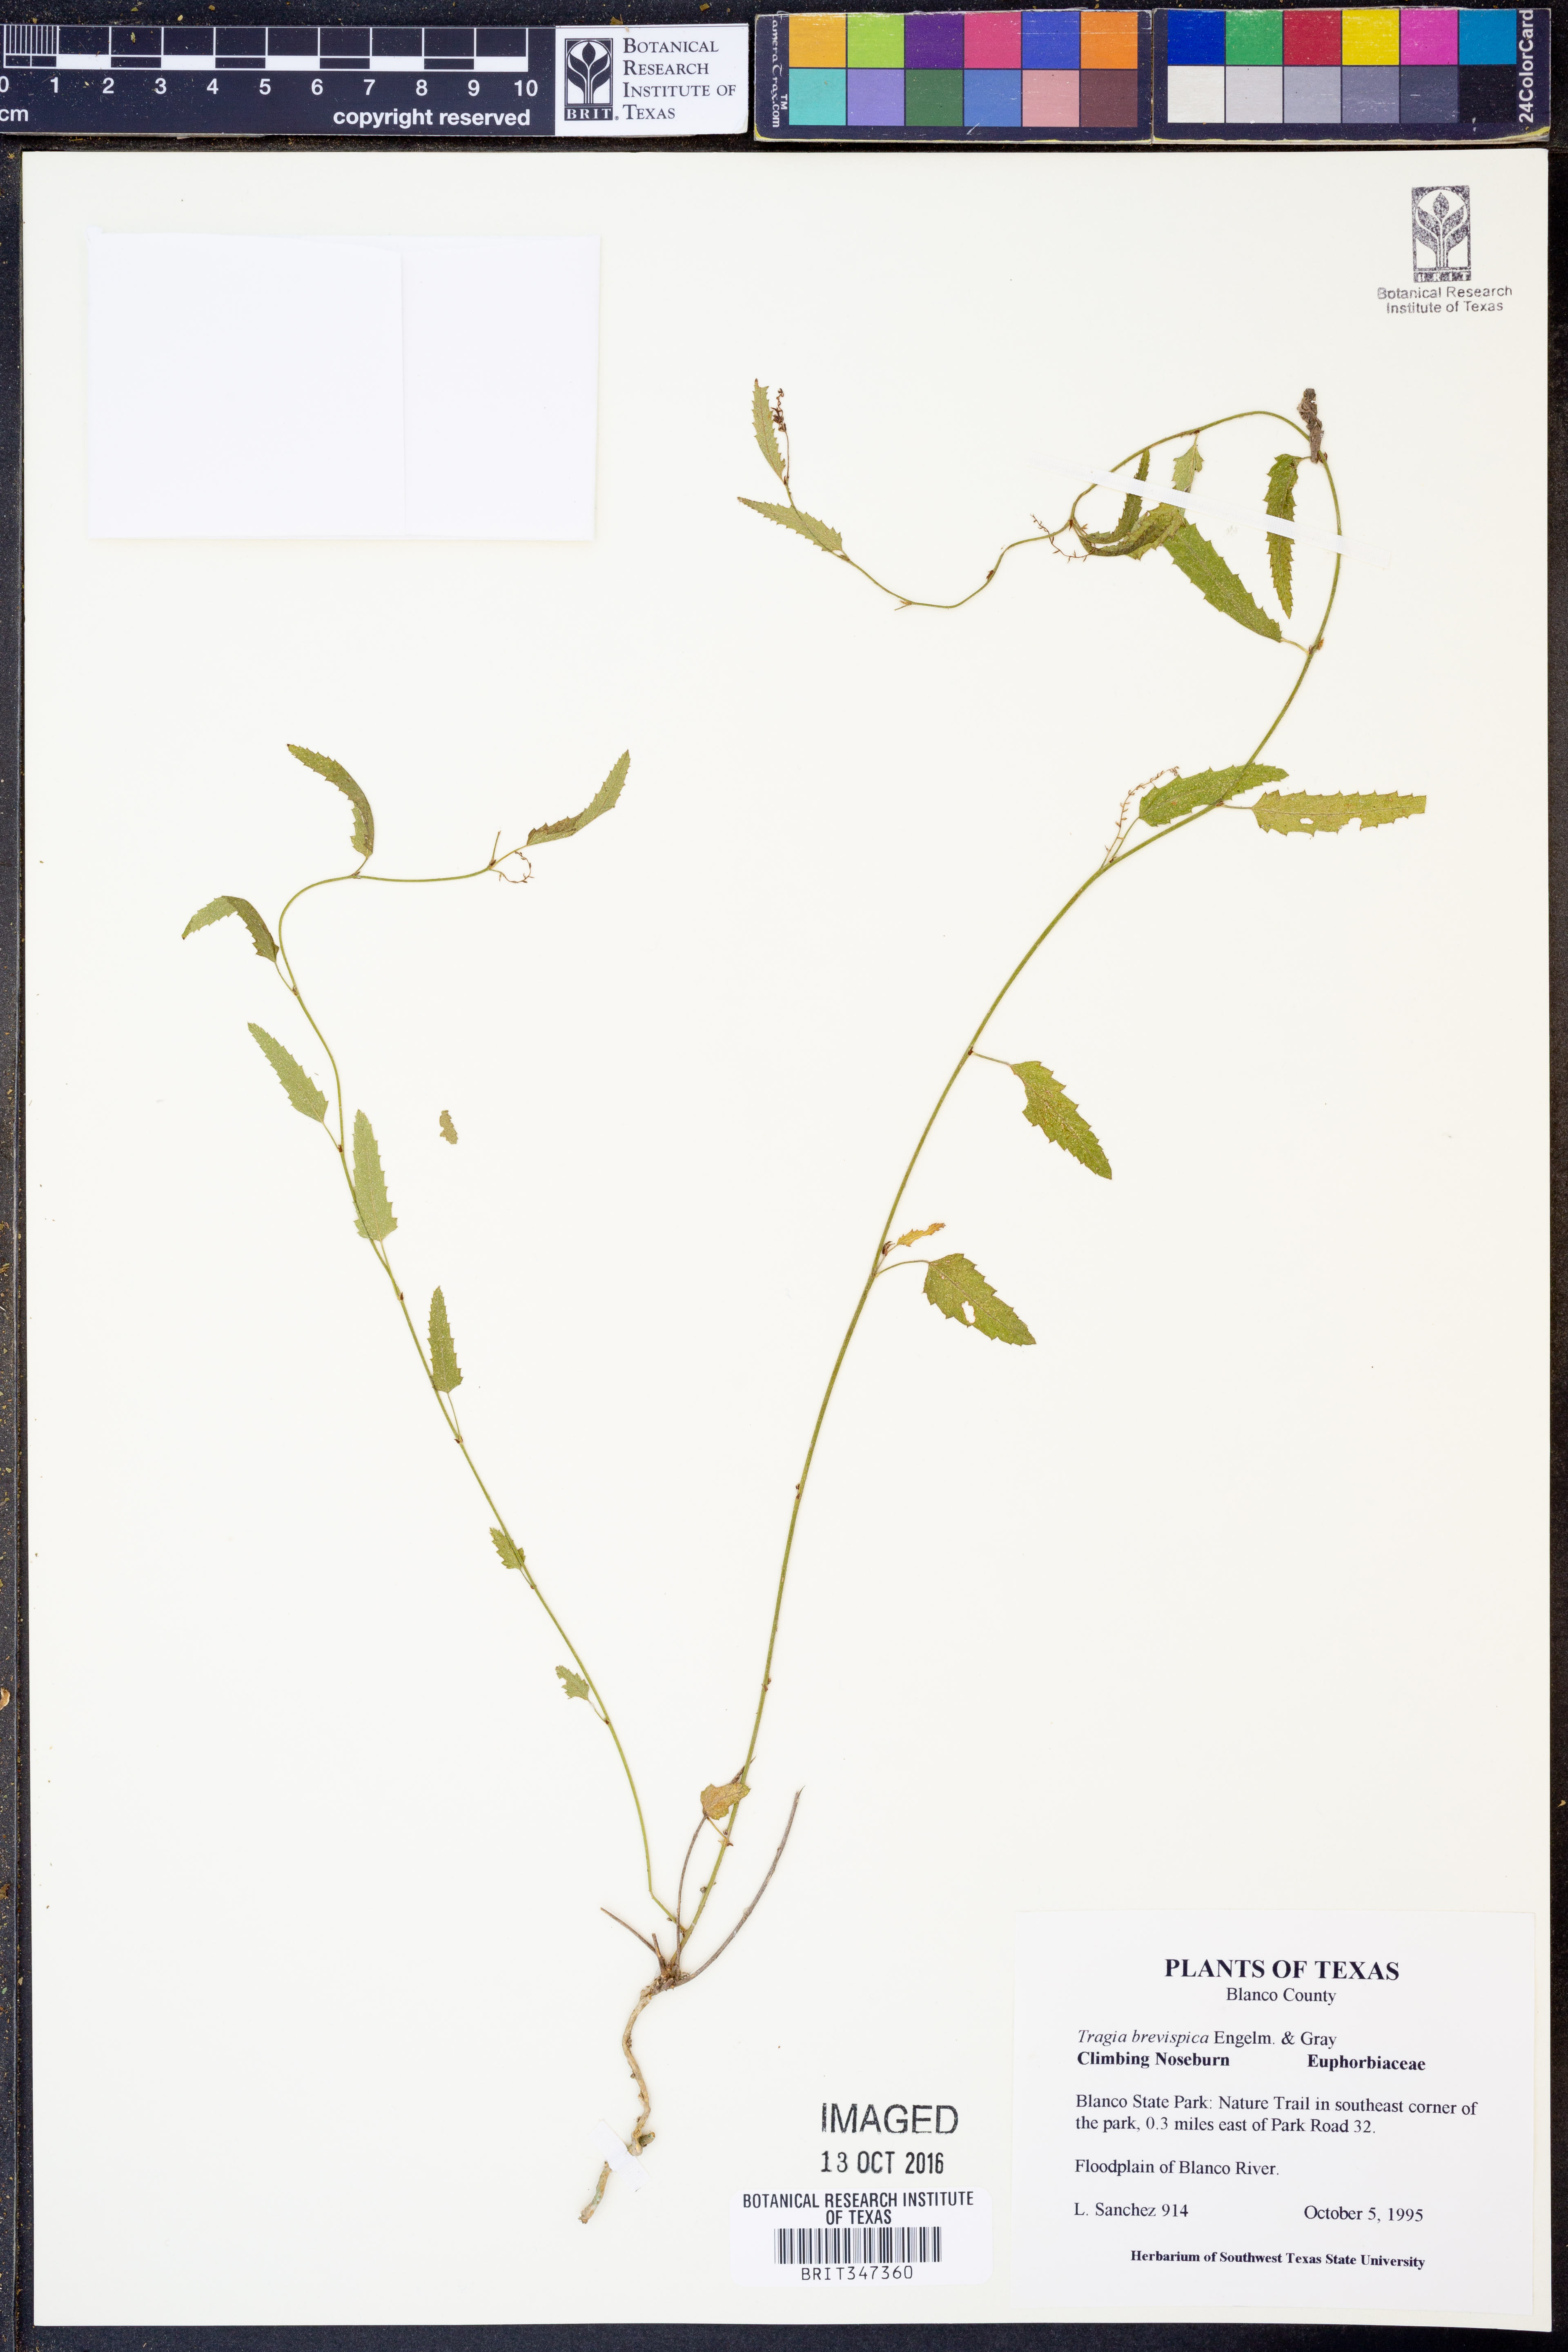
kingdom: Plantae
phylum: Tracheophyta
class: Magnoliopsida
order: Malpighiales
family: Euphorbiaceae
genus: Tragia
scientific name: Tragia brevispica
